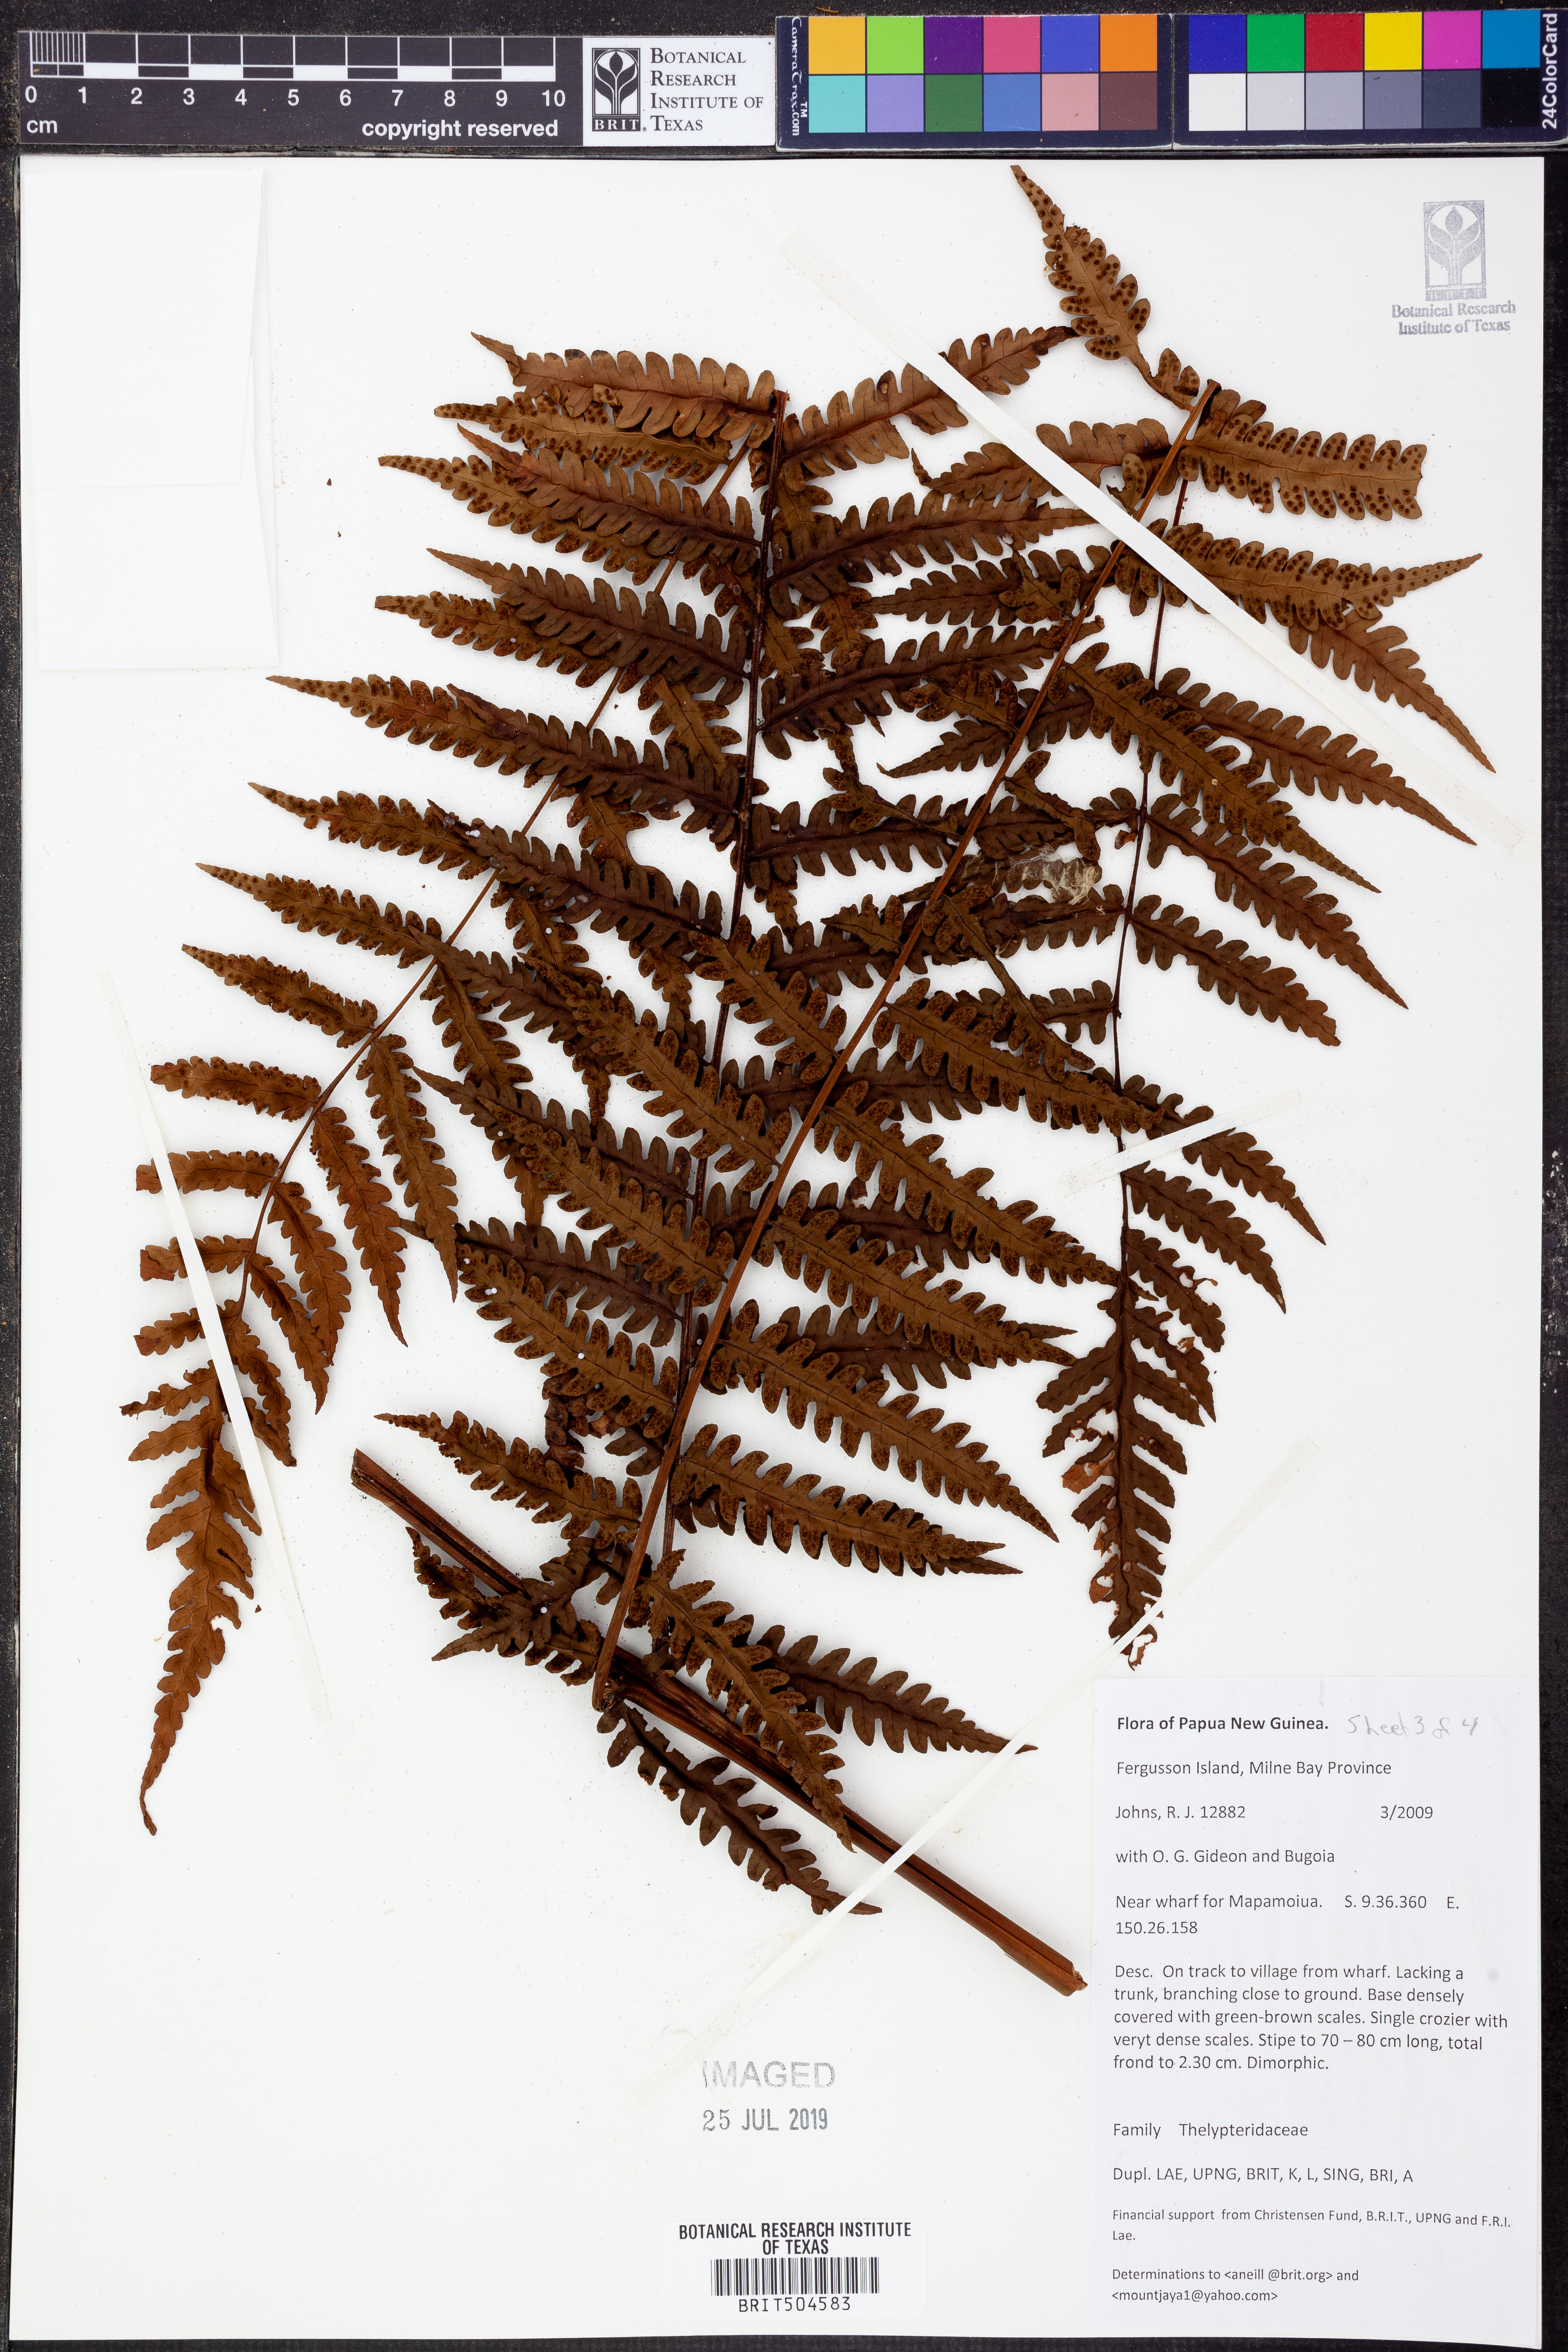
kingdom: Plantae
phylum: Tracheophyta
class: Polypodiopsida
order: Polypodiales
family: Thelypteridaceae
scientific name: Thelypteridaceae
